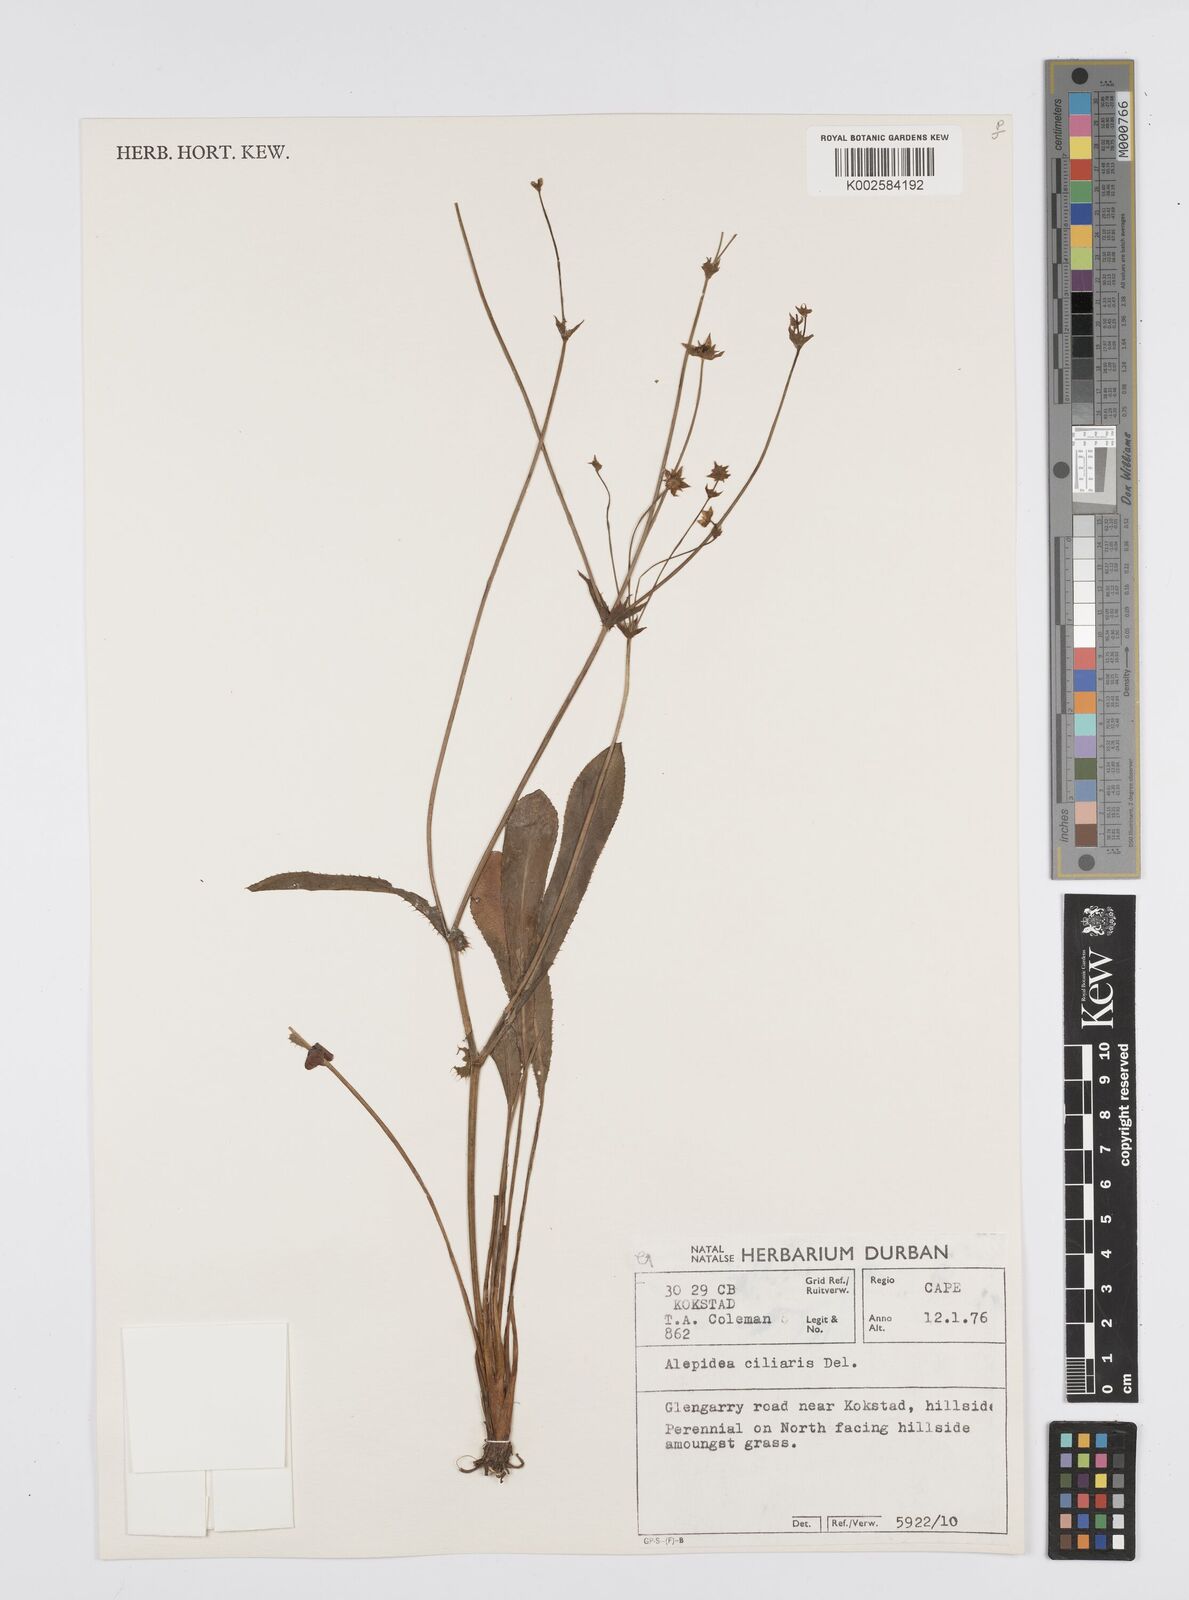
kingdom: Plantae
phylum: Tracheophyta
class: Magnoliopsida
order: Apiales
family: Apiaceae
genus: Alepidea
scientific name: Alepidea capensis
